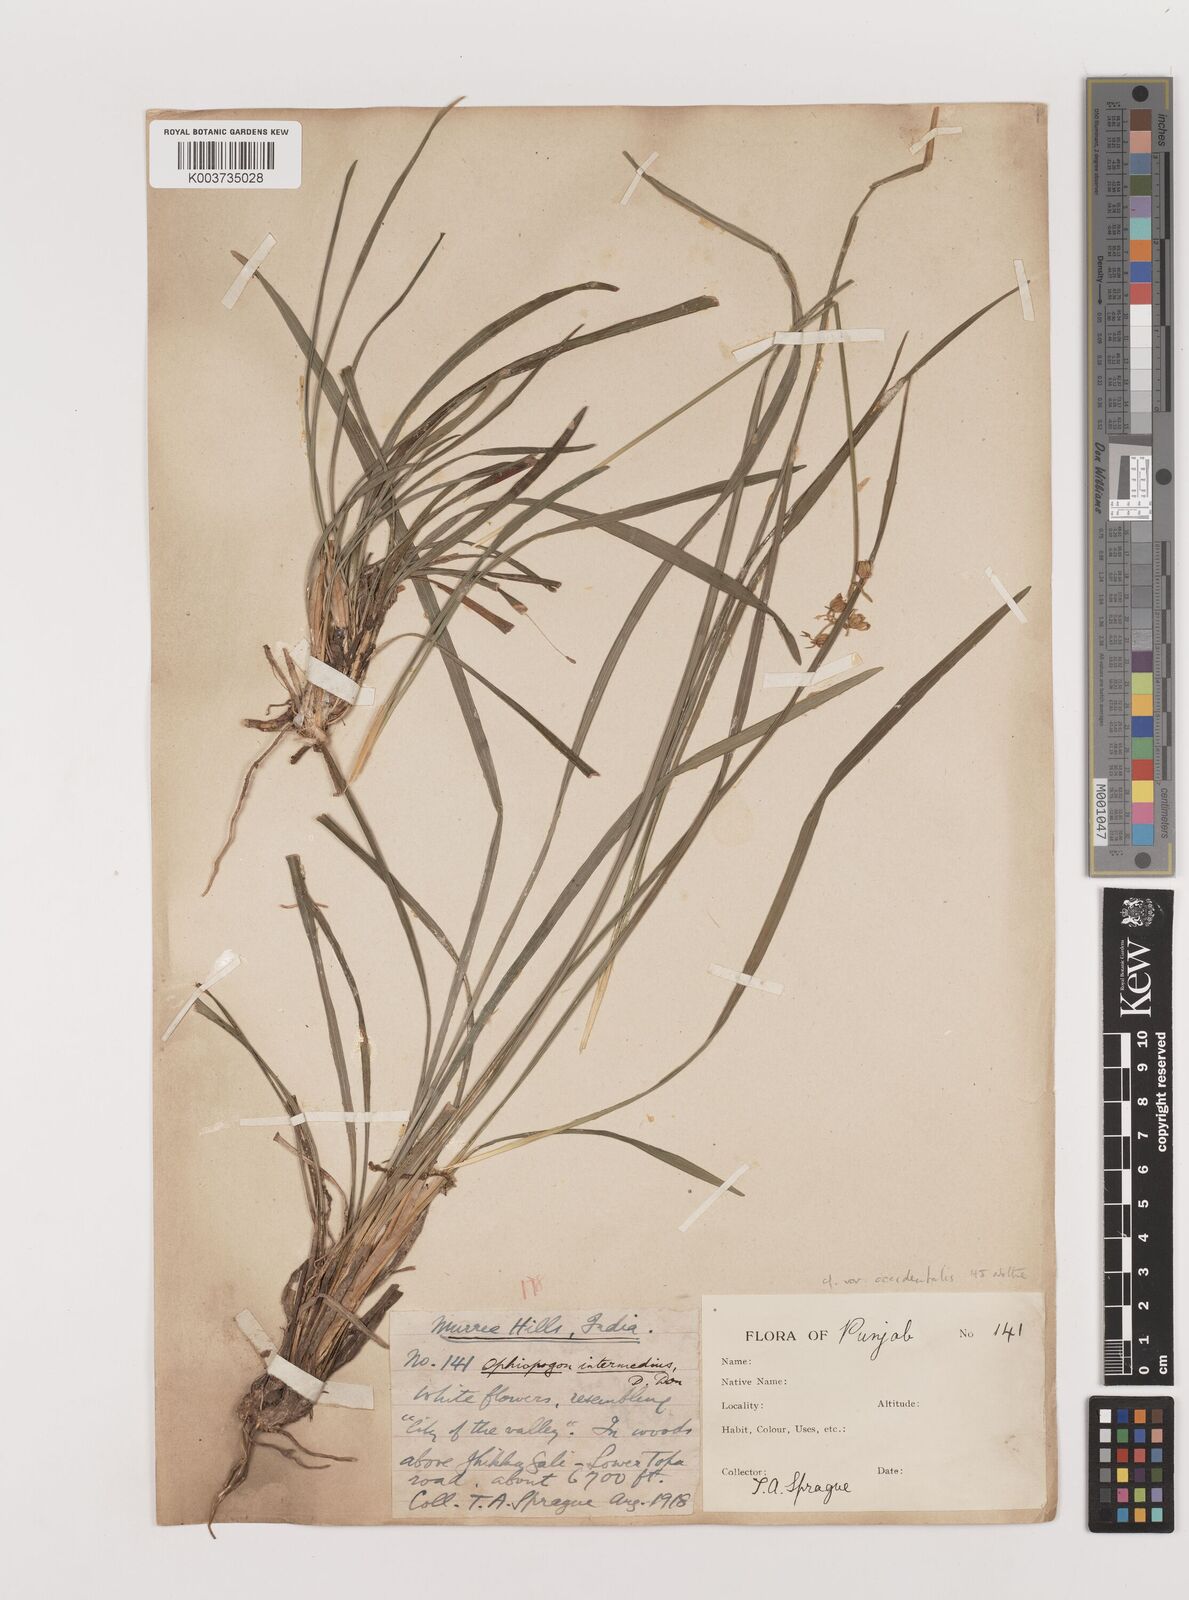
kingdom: Plantae
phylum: Tracheophyta
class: Liliopsida
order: Asparagales
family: Asparagaceae
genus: Ophiopogon
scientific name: Ophiopogon intermedius
